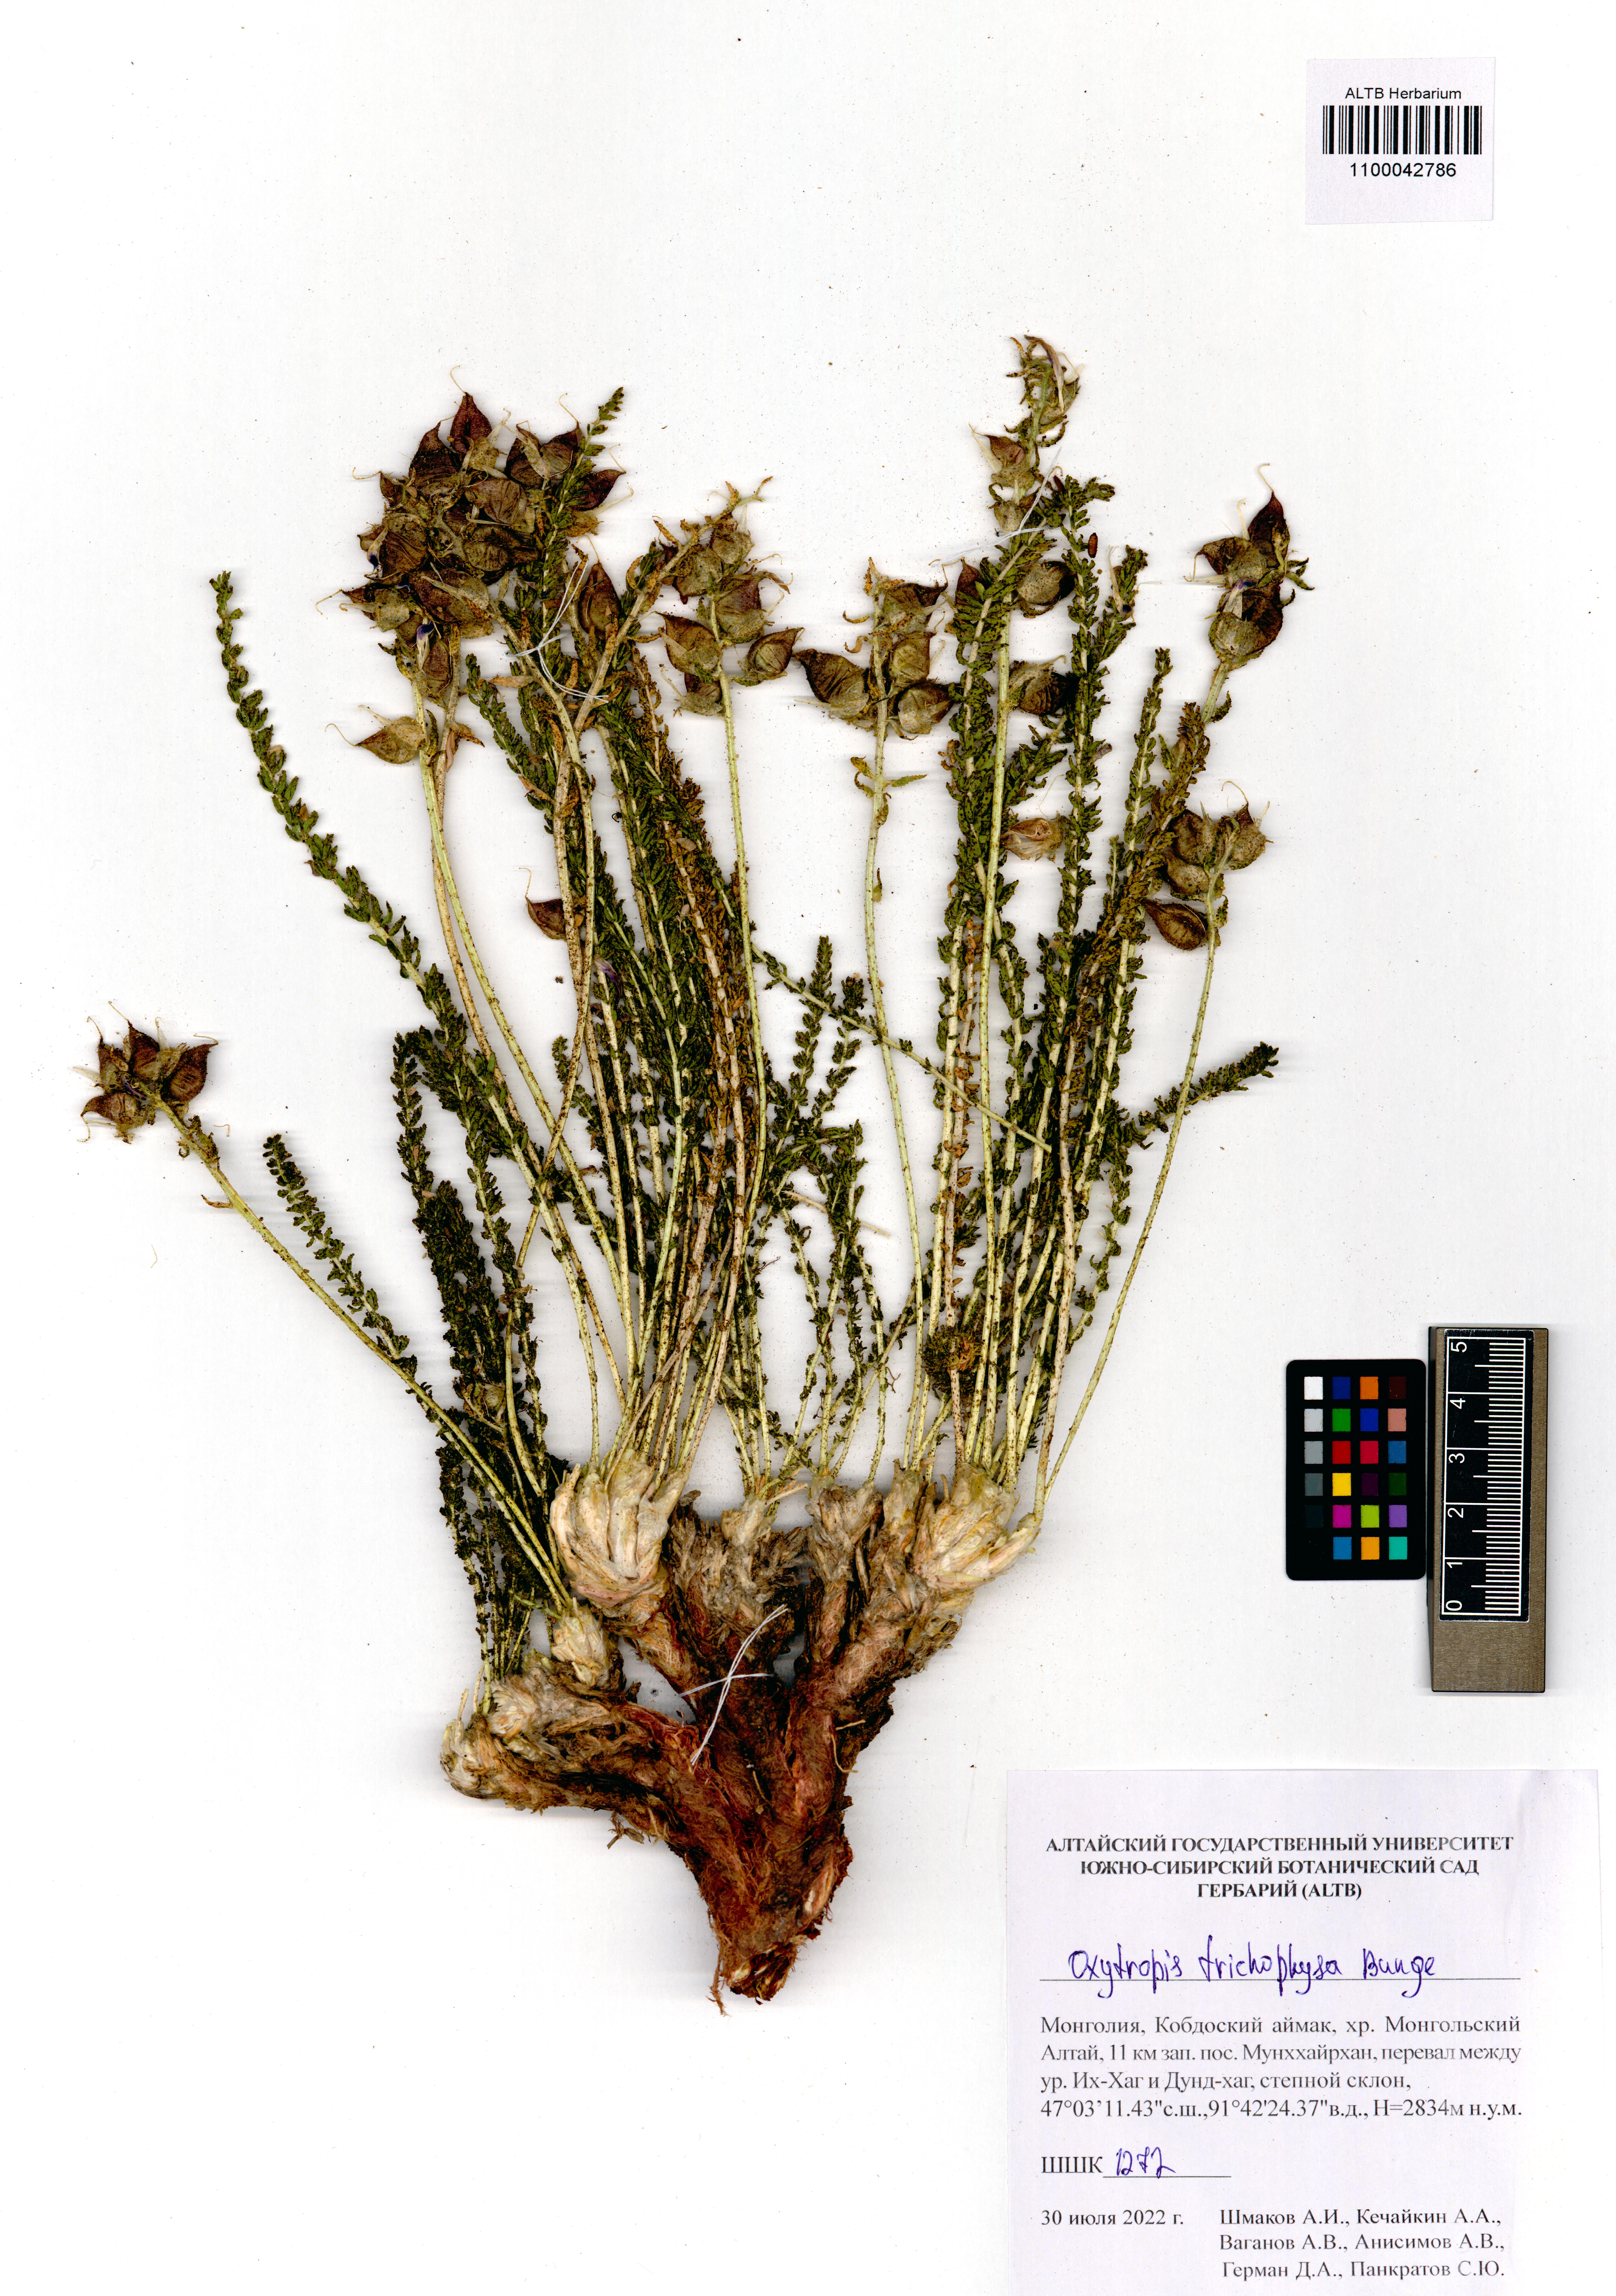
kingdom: Plantae
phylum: Tracheophyta
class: Magnoliopsida
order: Fabales
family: Fabaceae
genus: Oxytropis
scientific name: Oxytropis trichophysa
